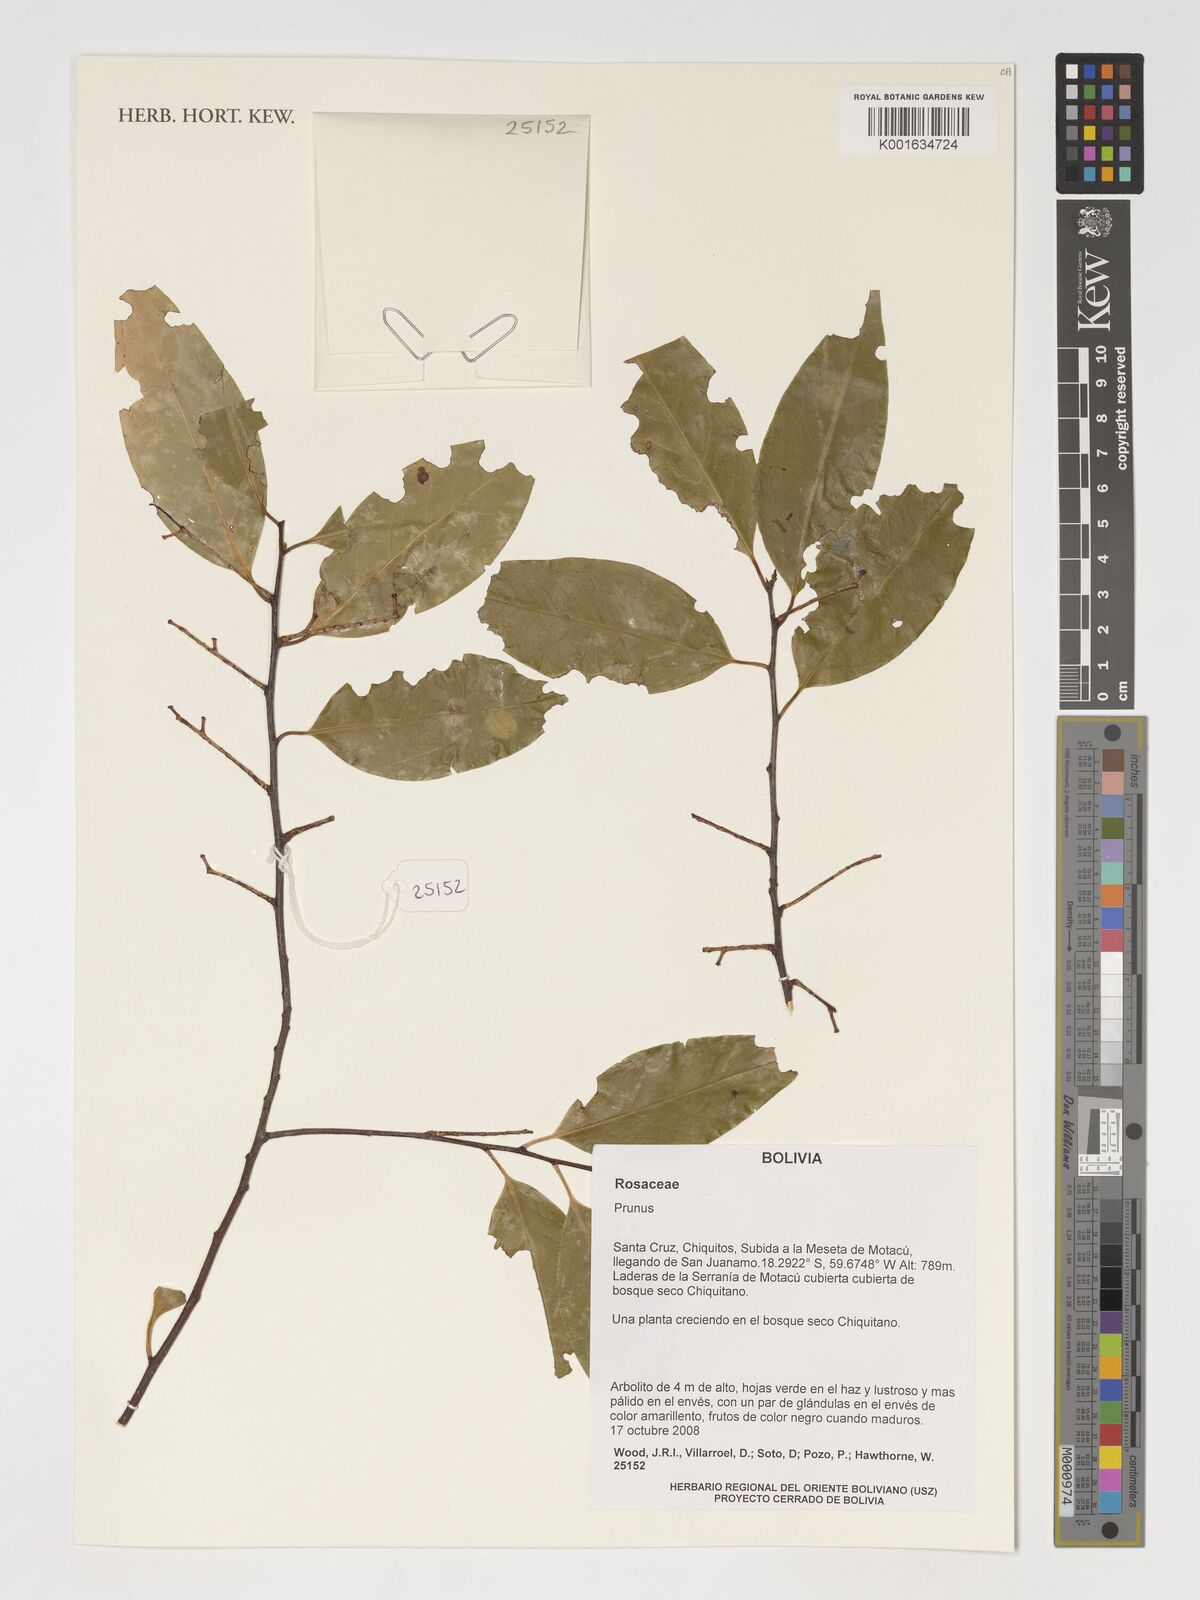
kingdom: Plantae
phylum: Tracheophyta
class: Magnoliopsida
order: Rosales
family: Rosaceae
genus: Prunus
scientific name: Prunus
